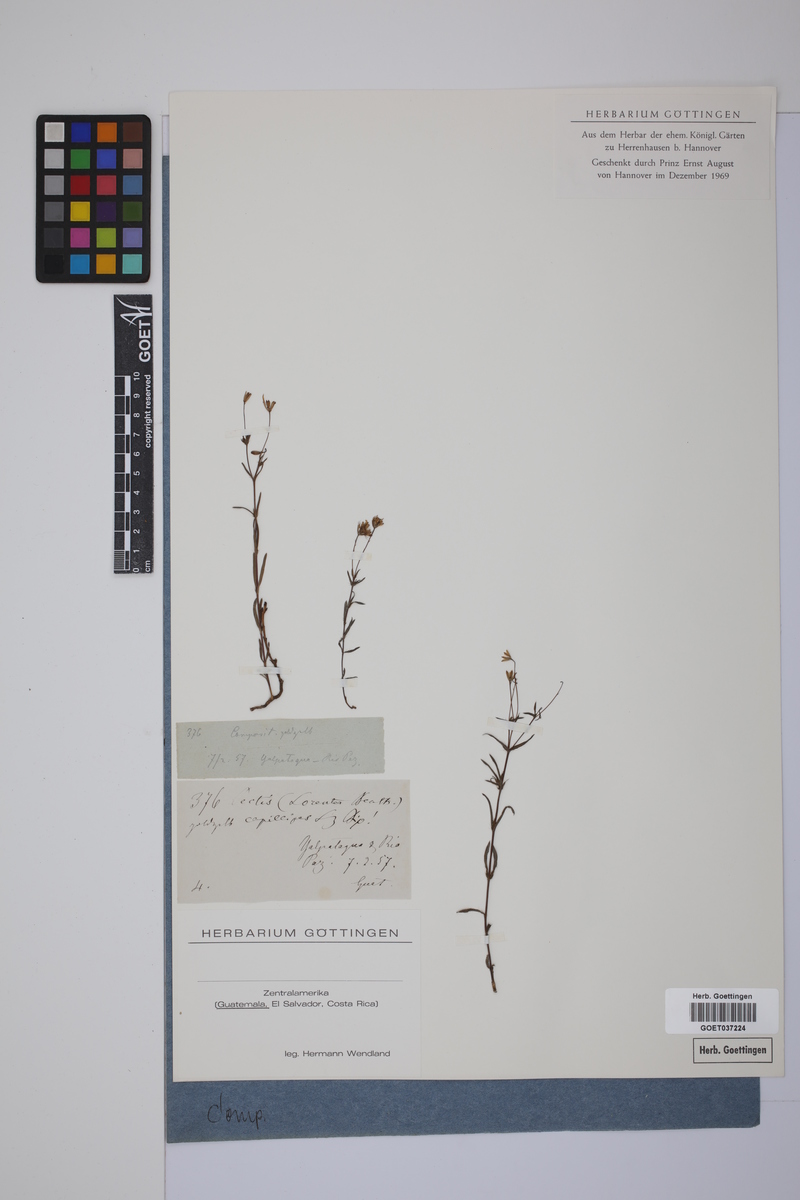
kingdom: Plantae
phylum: Tracheophyta
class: Magnoliopsida
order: Asterales
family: Asteraceae
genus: Pectis
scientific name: Pectis
